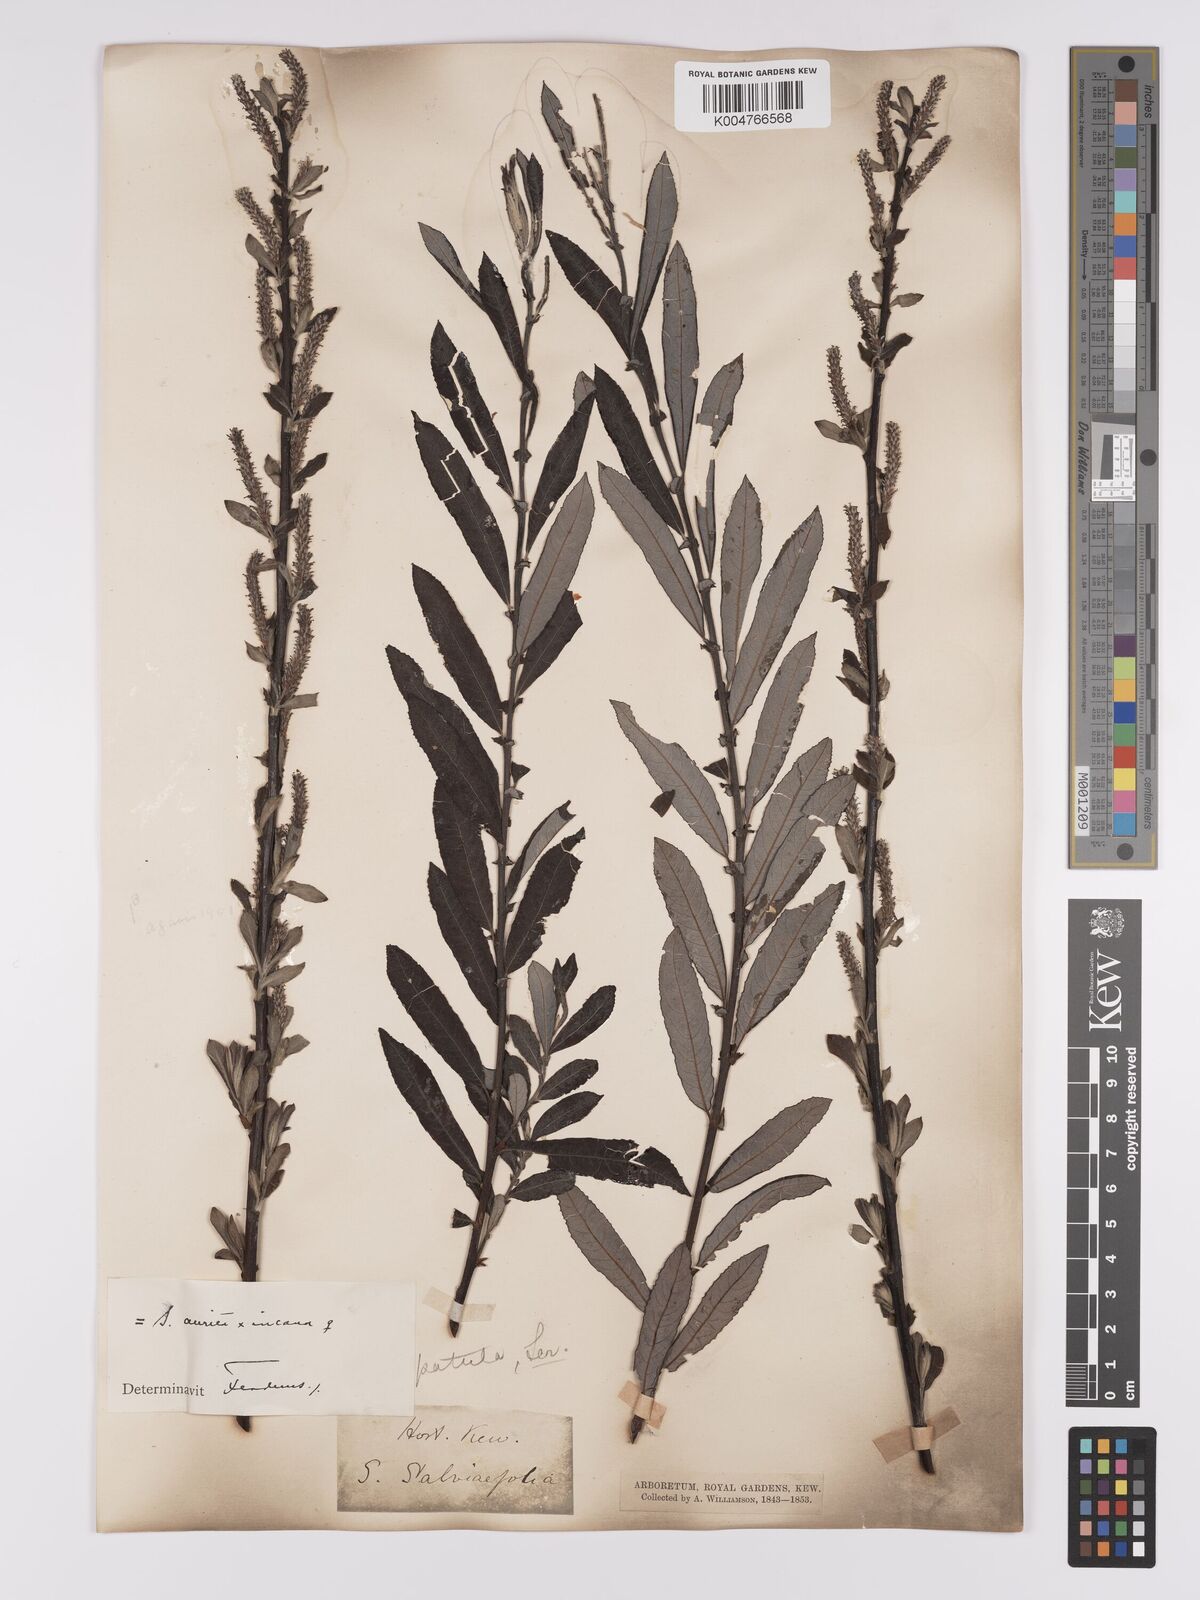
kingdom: Plantae
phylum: Tracheophyta
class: Magnoliopsida
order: Malpighiales
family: Salicaceae
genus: Salix
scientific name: Salix
